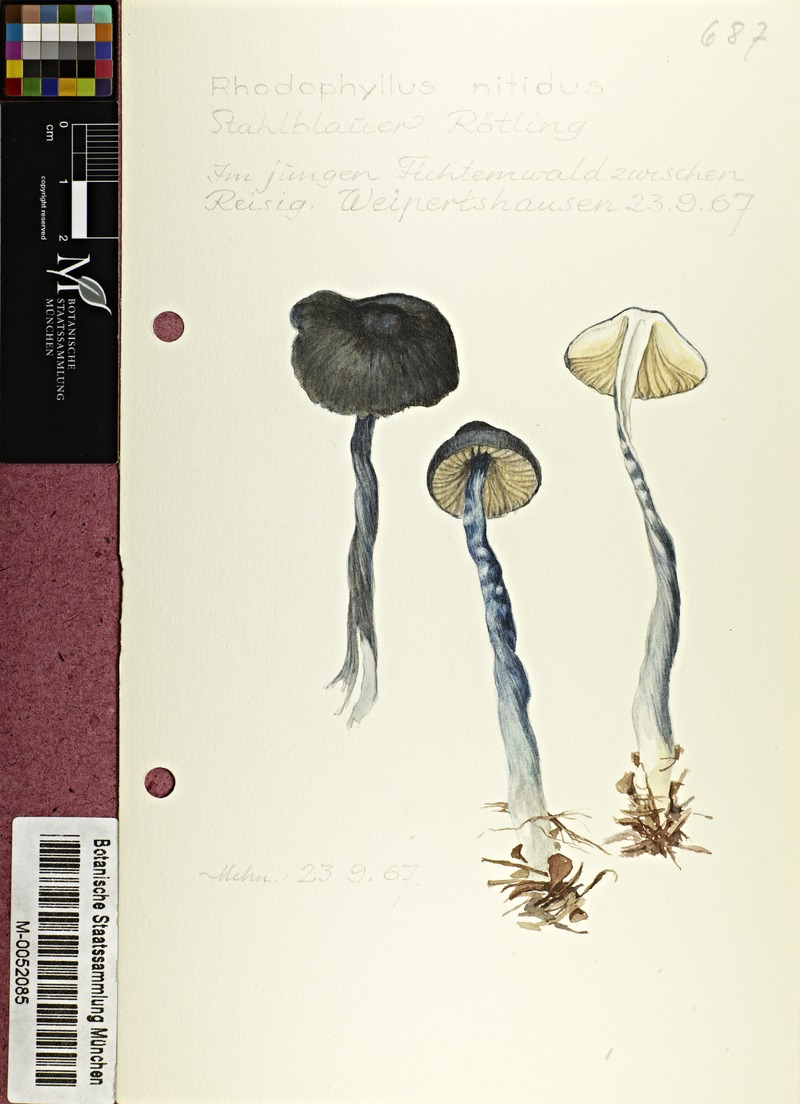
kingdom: Fungi
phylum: Basidiomycota
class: Agaricomycetes
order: Agaricales
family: Entolomataceae
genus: Entocybe
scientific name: Entocybe nitida
